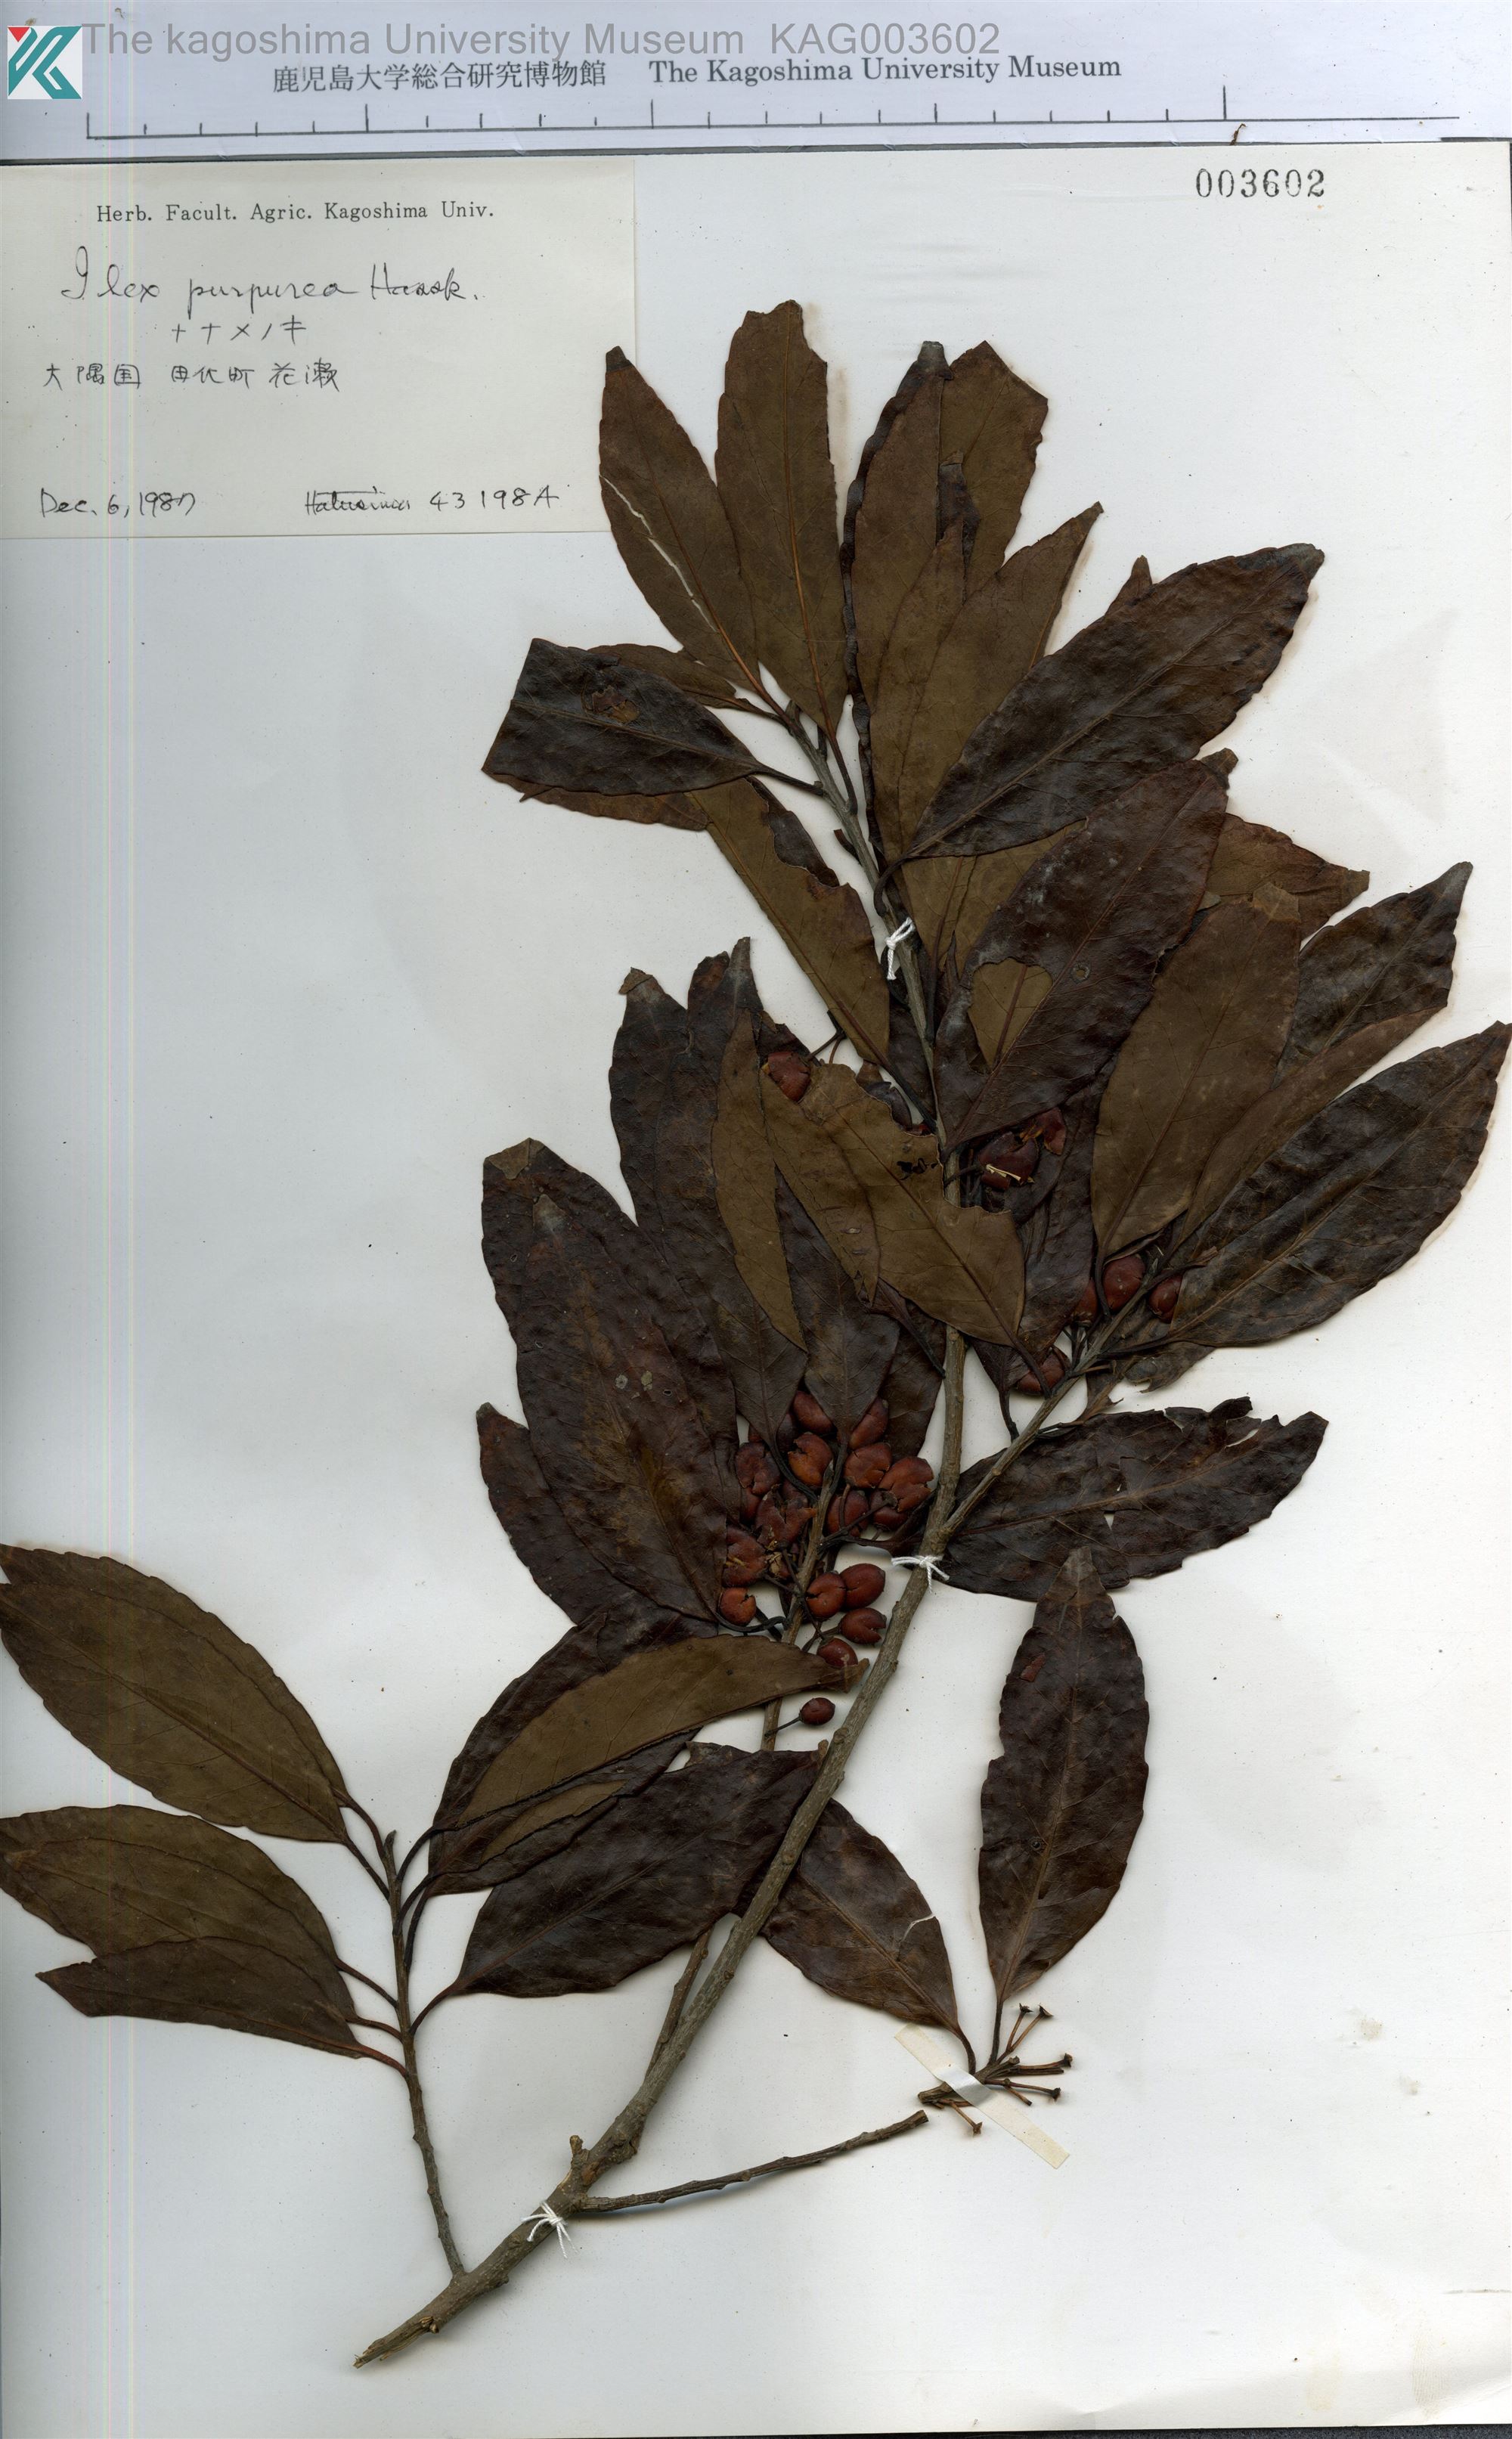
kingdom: Plantae
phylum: Tracheophyta
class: Magnoliopsida
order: Aquifoliales
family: Aquifoliaceae
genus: Ilex
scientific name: Ilex chinensis
